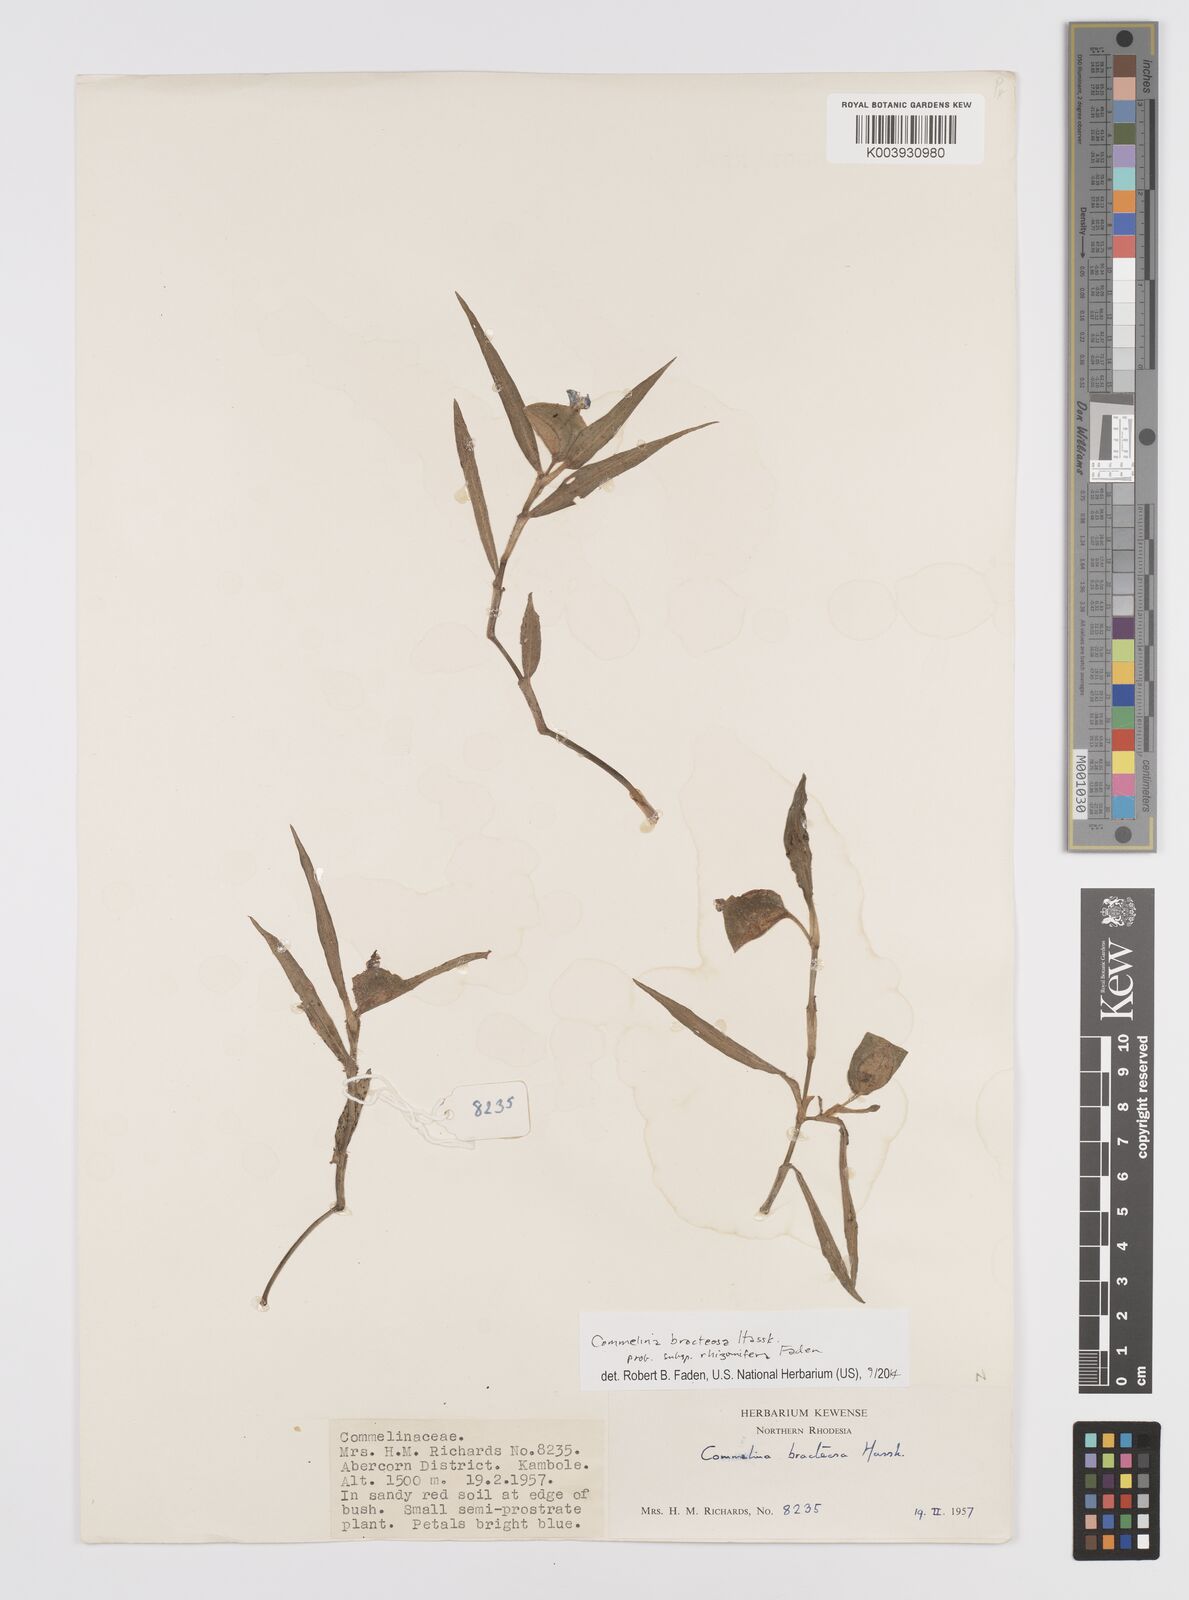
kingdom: Plantae
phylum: Tracheophyta
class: Liliopsida
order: Commelinales
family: Commelinaceae
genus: Commelina
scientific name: Commelina bracteosa
